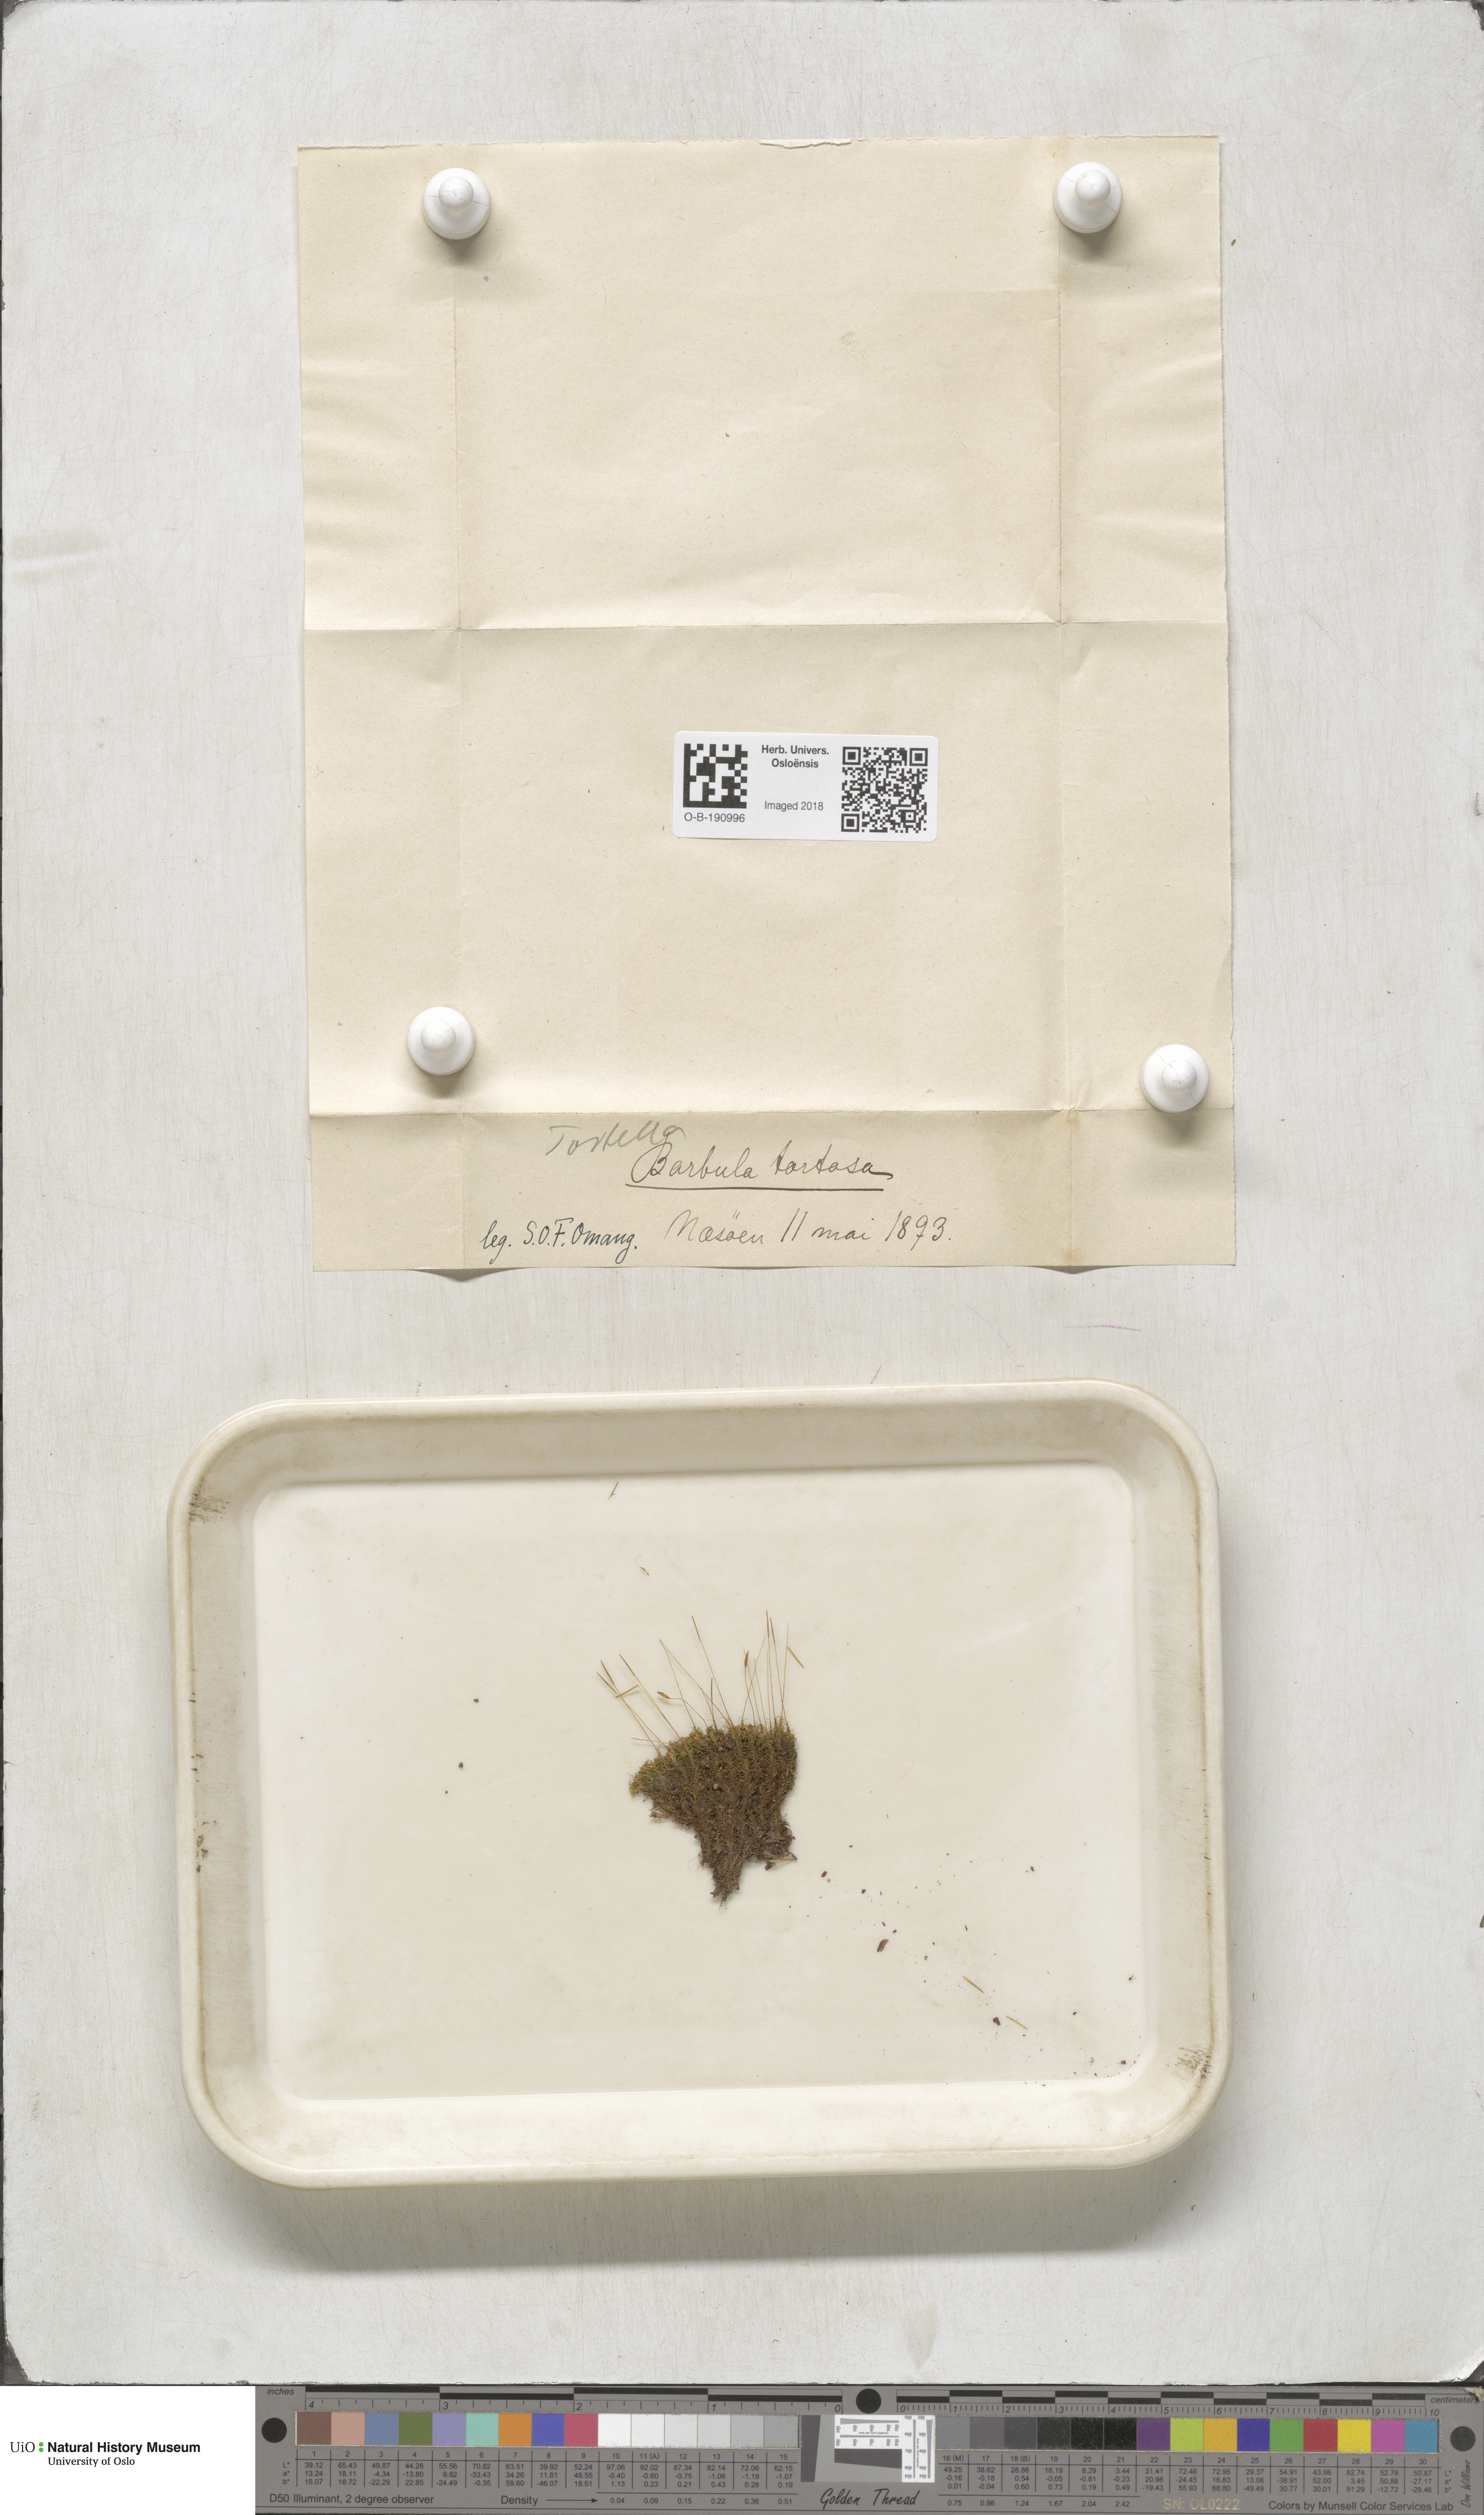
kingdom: Plantae
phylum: Bryophyta
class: Bryopsida
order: Pottiales
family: Pottiaceae
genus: Tortella
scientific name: Tortella tortuosa
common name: Frizzled crisp moss
